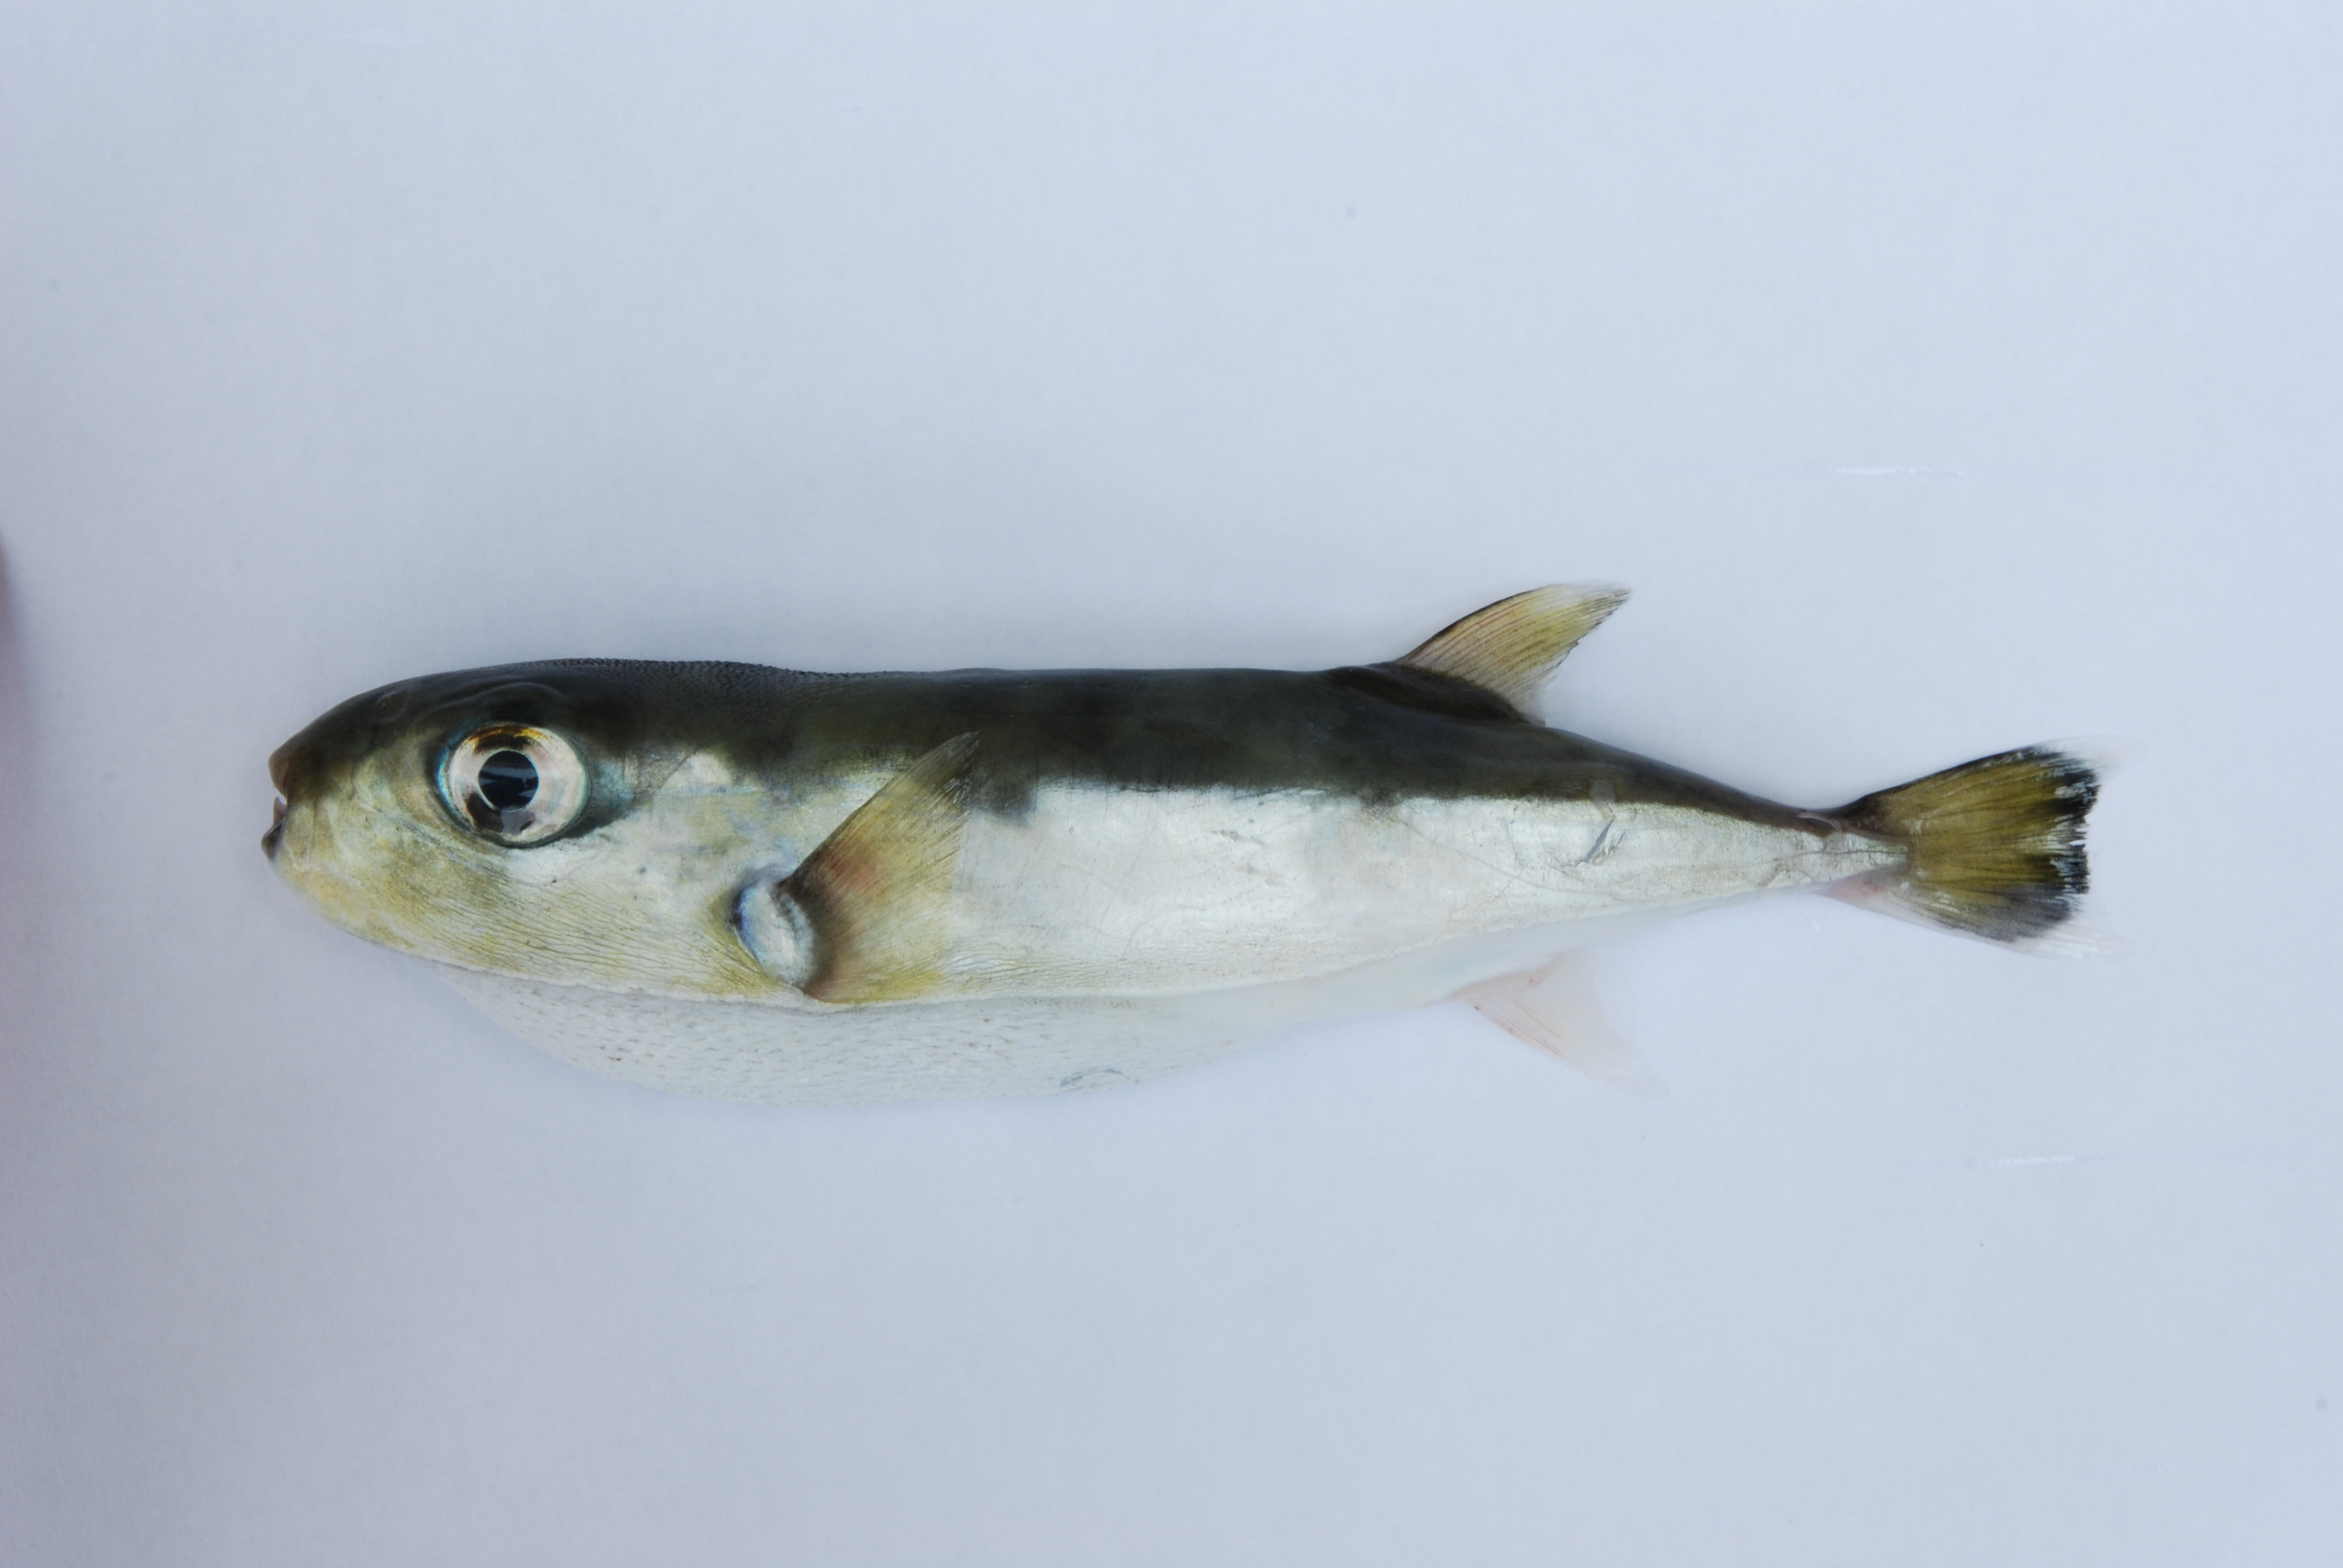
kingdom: Animalia
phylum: Chordata
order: Tetraodontiformes
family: Tetraodontidae
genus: Lagocephalus
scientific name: Lagocephalus guentheri
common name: Diamondback puffer
